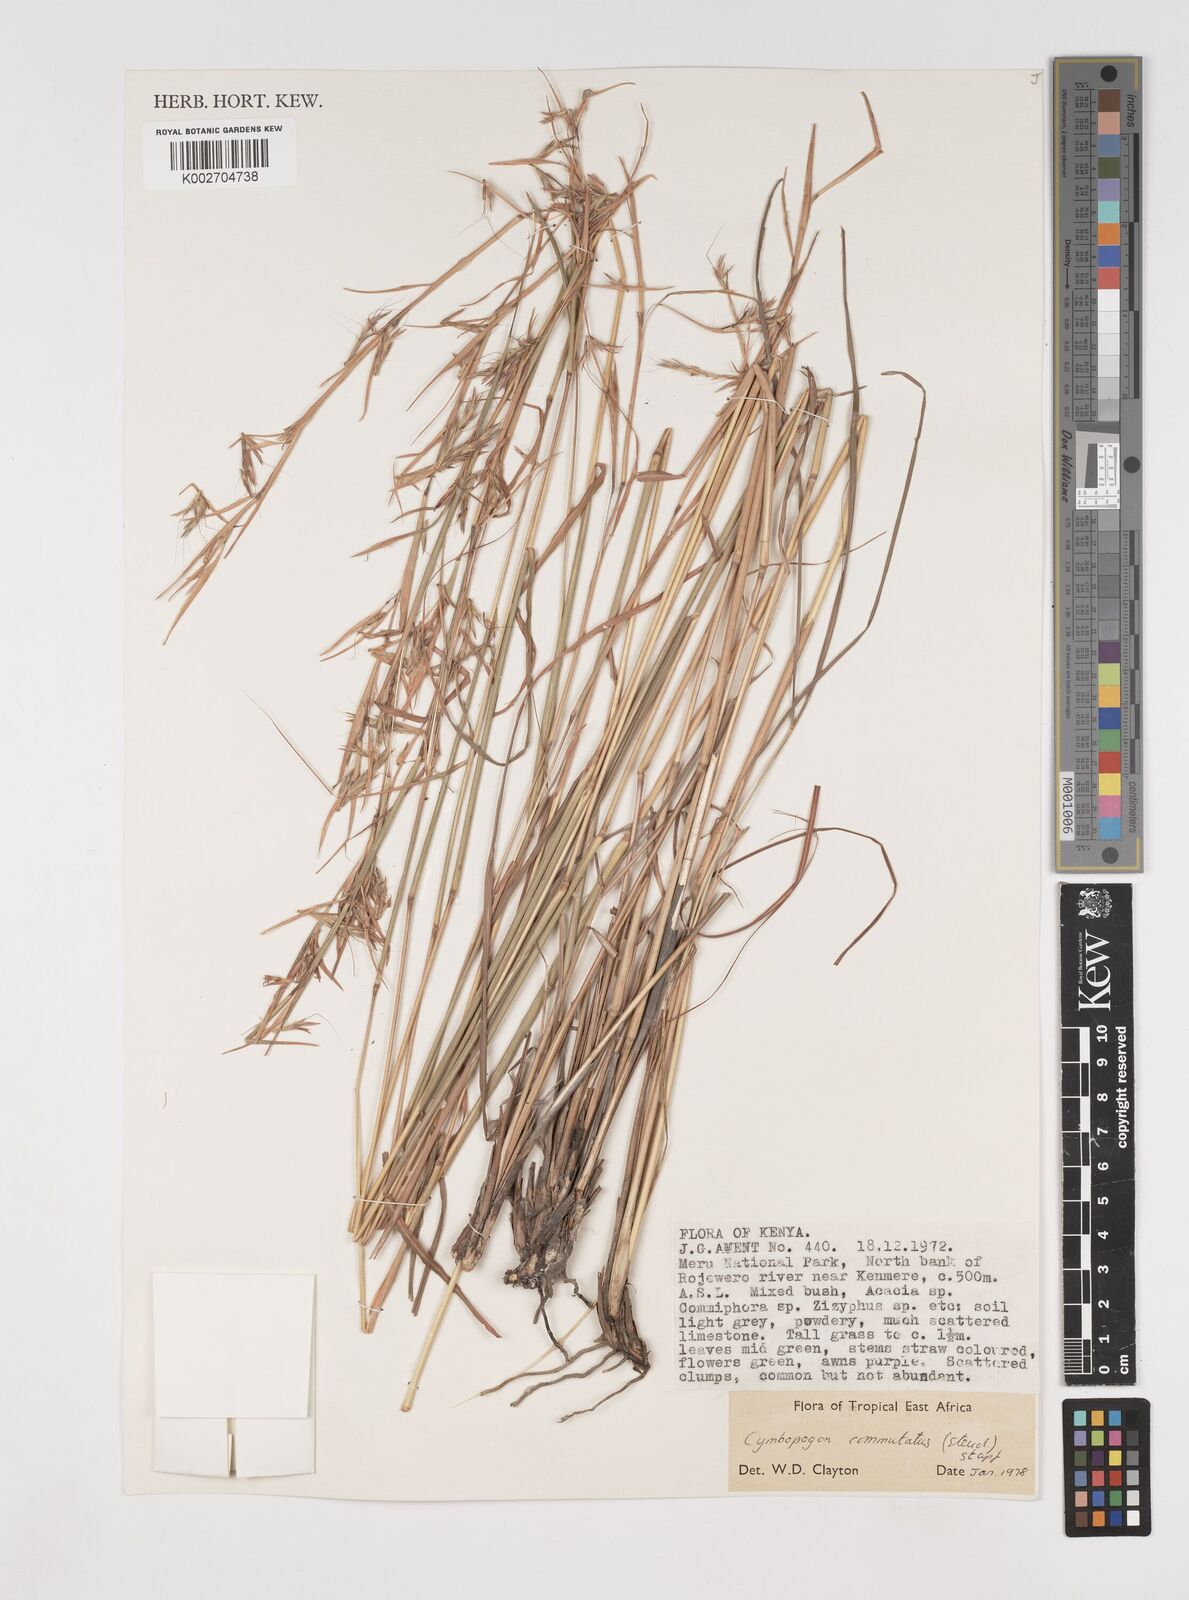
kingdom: Plantae
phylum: Tracheophyta
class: Liliopsida
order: Poales
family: Poaceae
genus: Cymbopogon
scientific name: Cymbopogon commutatus
